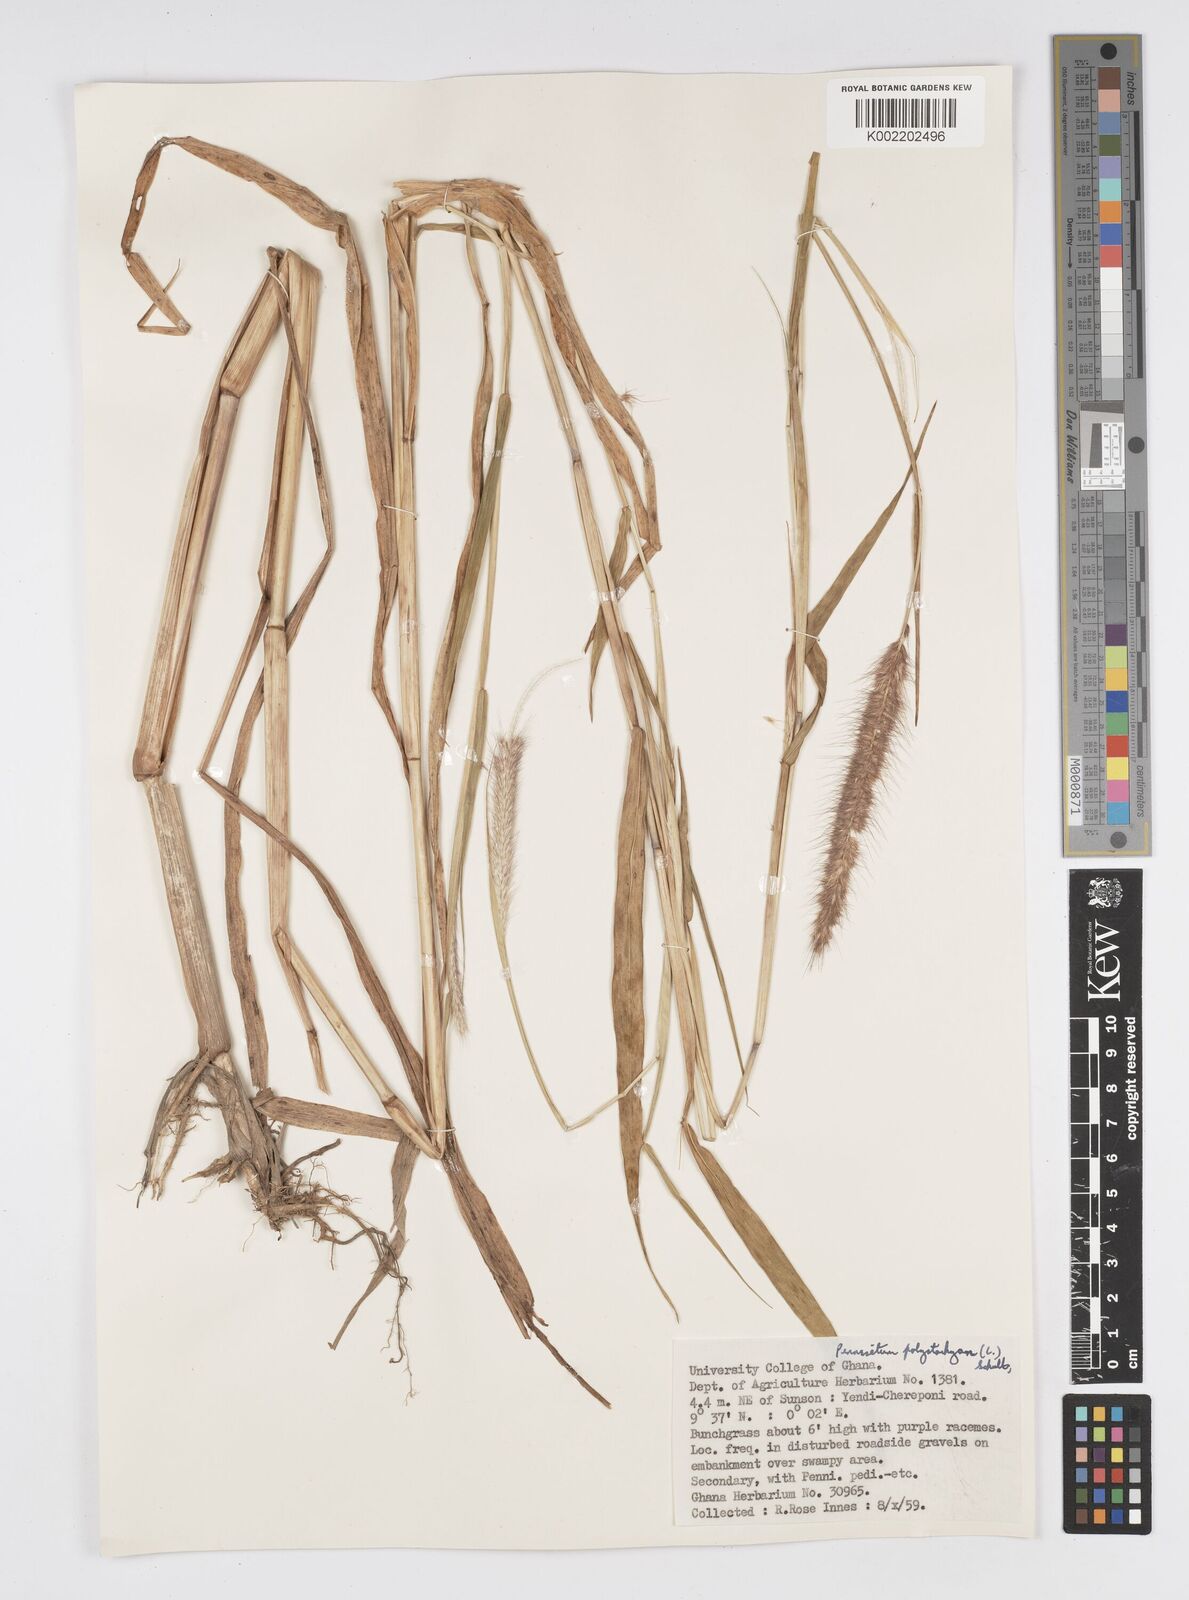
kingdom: Plantae
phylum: Tracheophyta
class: Liliopsida
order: Poales
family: Poaceae
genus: Setaria
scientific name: Setaria parviflora
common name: Knotroot bristle-grass
